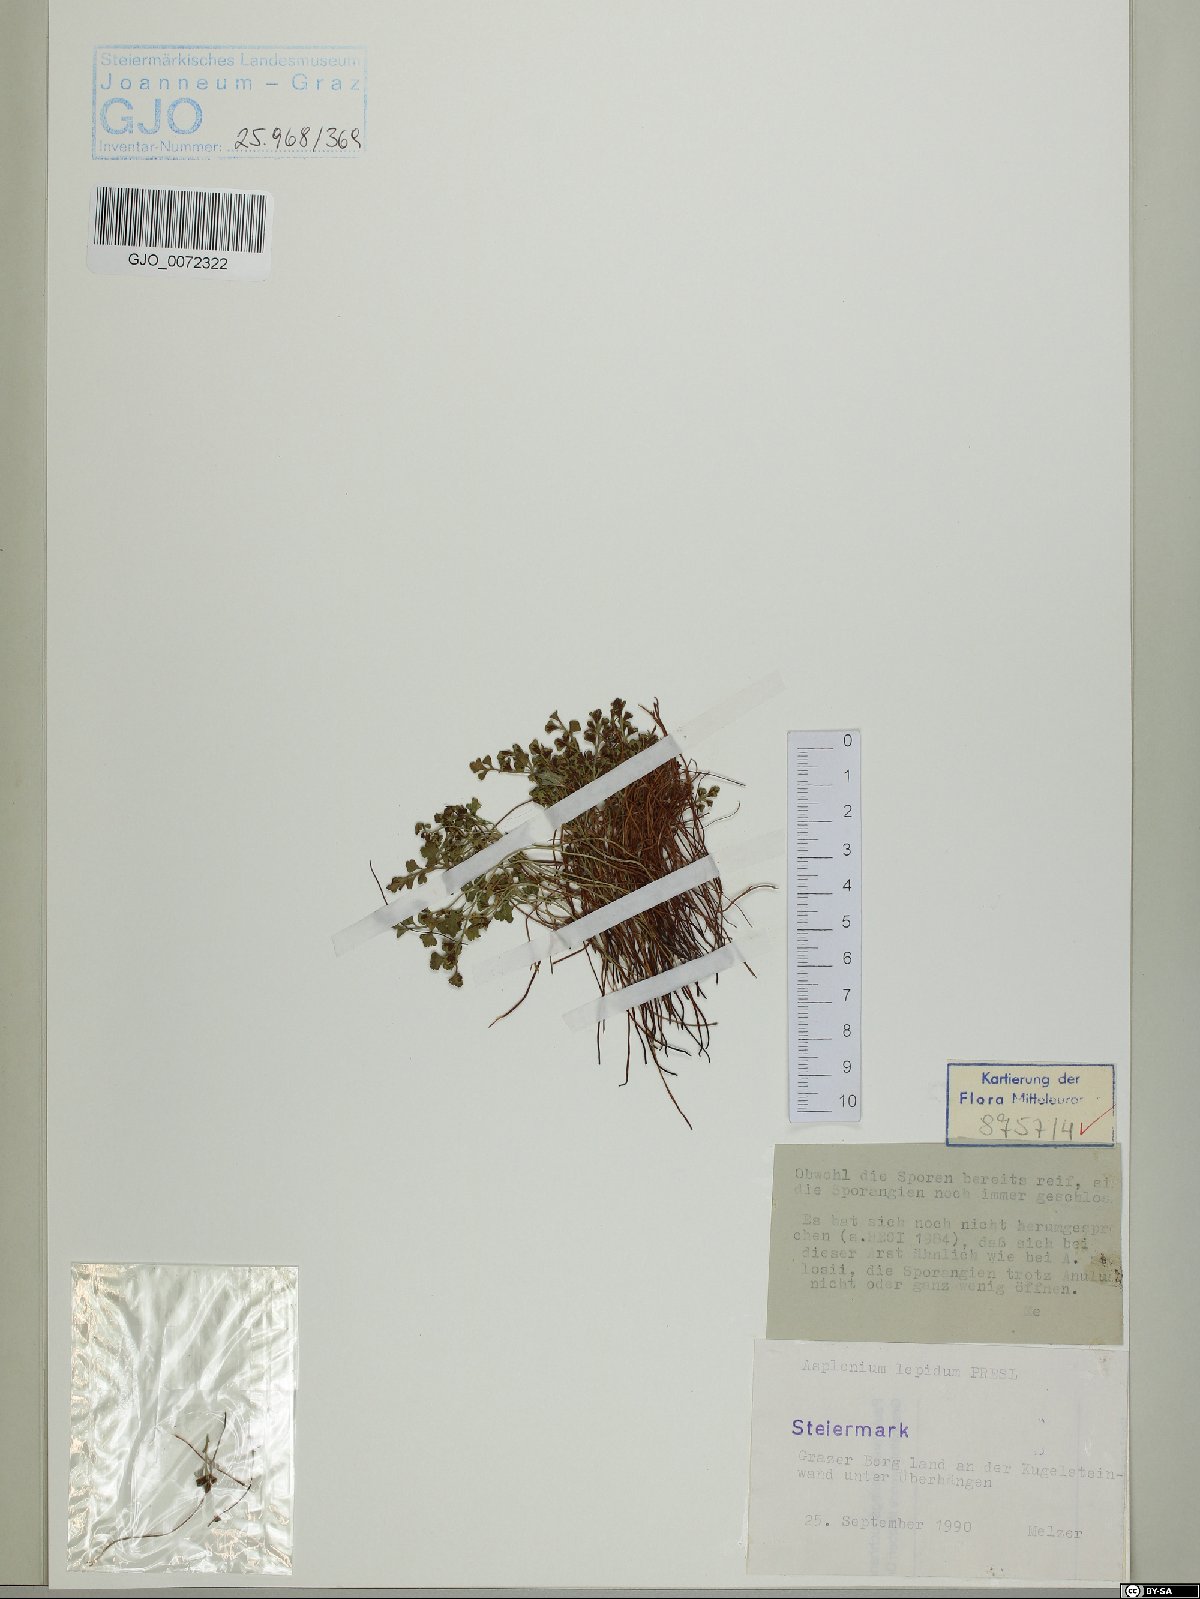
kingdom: Plantae
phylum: Tracheophyta
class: Polypodiopsida
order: Polypodiales
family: Aspleniaceae
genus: Asplenium
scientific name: Asplenium lepidum
